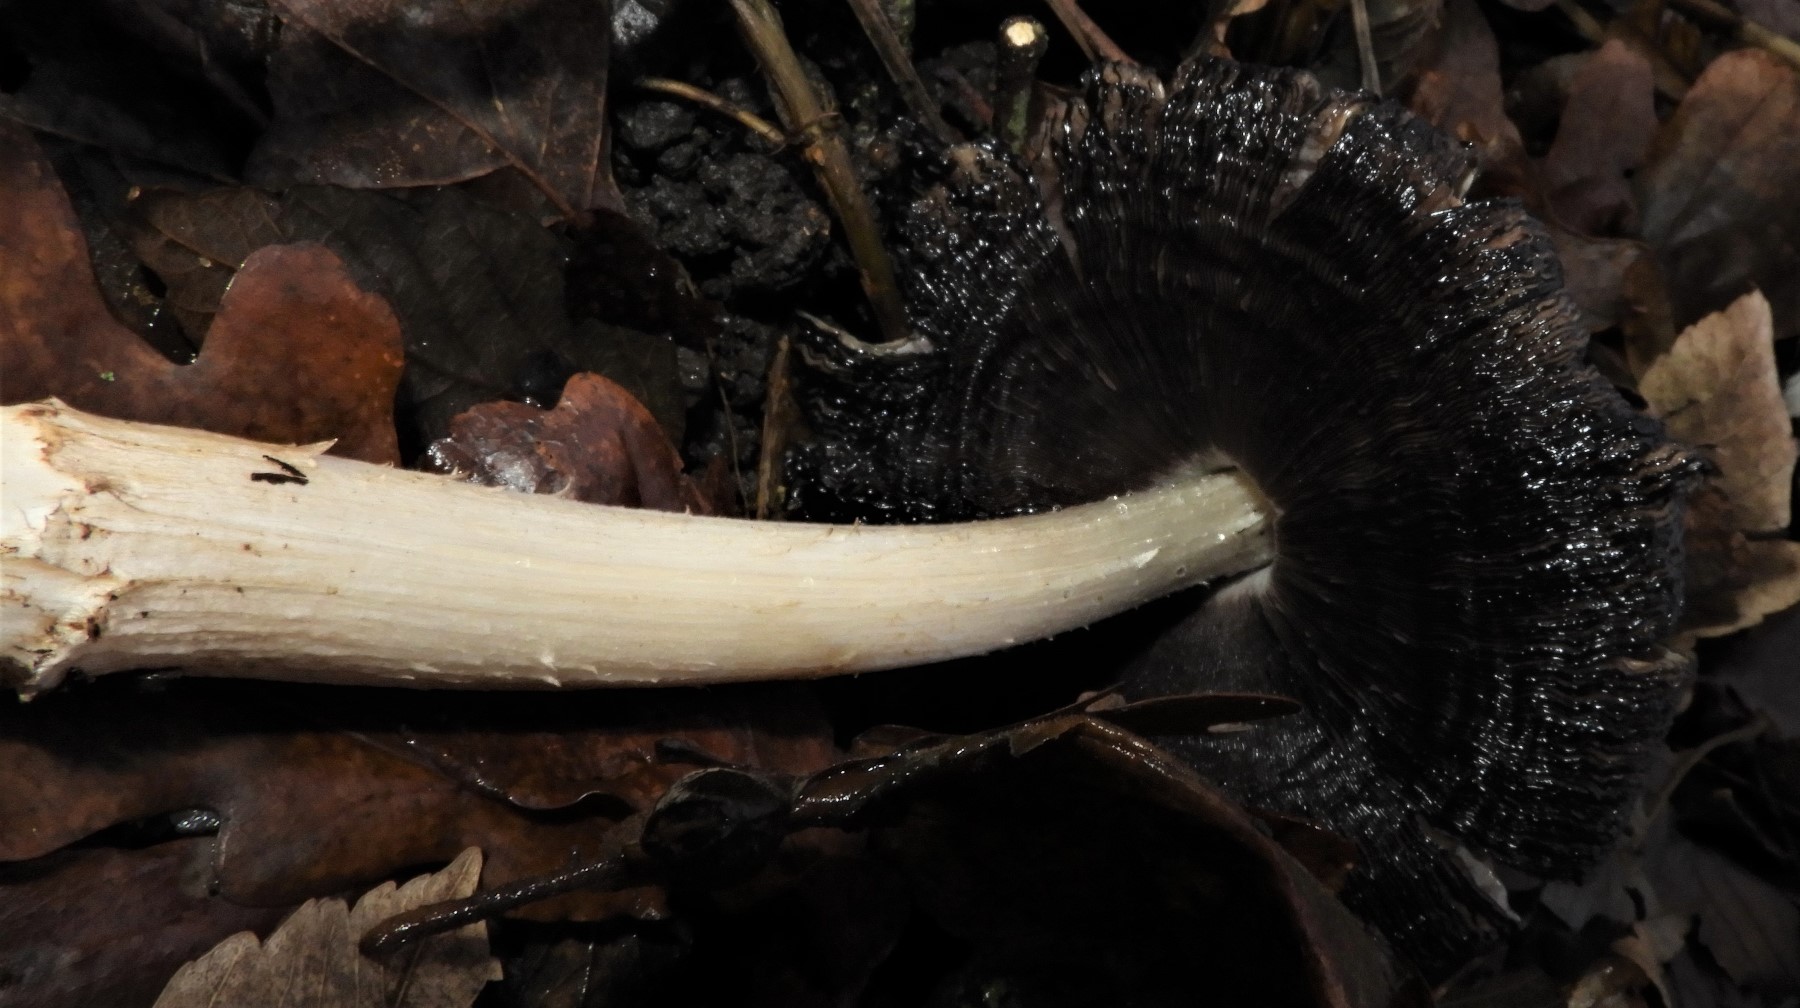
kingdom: Fungi
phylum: Basidiomycota
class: Agaricomycetes
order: Agaricales
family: Psathyrellaceae
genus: Coprinopsis
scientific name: Coprinopsis
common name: blækhat
